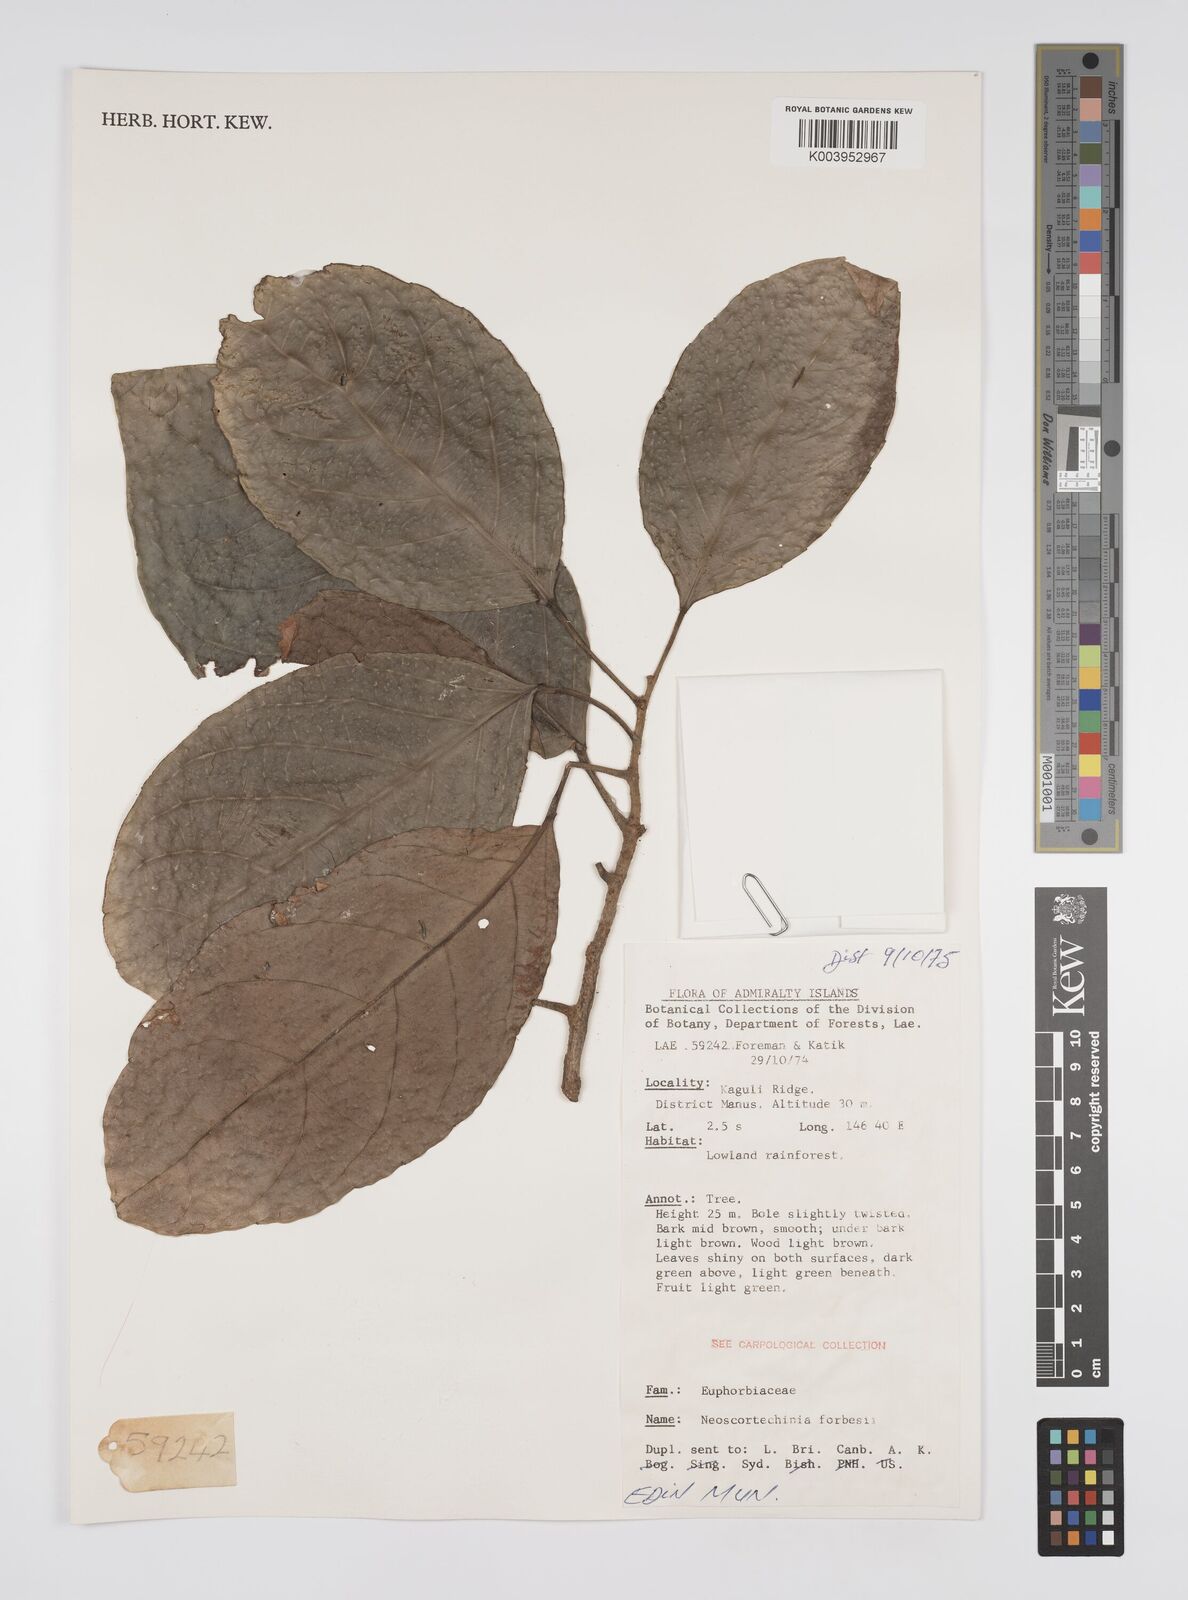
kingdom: Plantae
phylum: Tracheophyta
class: Magnoliopsida
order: Malpighiales
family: Euphorbiaceae
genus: Neoscortechinia
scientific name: Neoscortechinia forbesii
